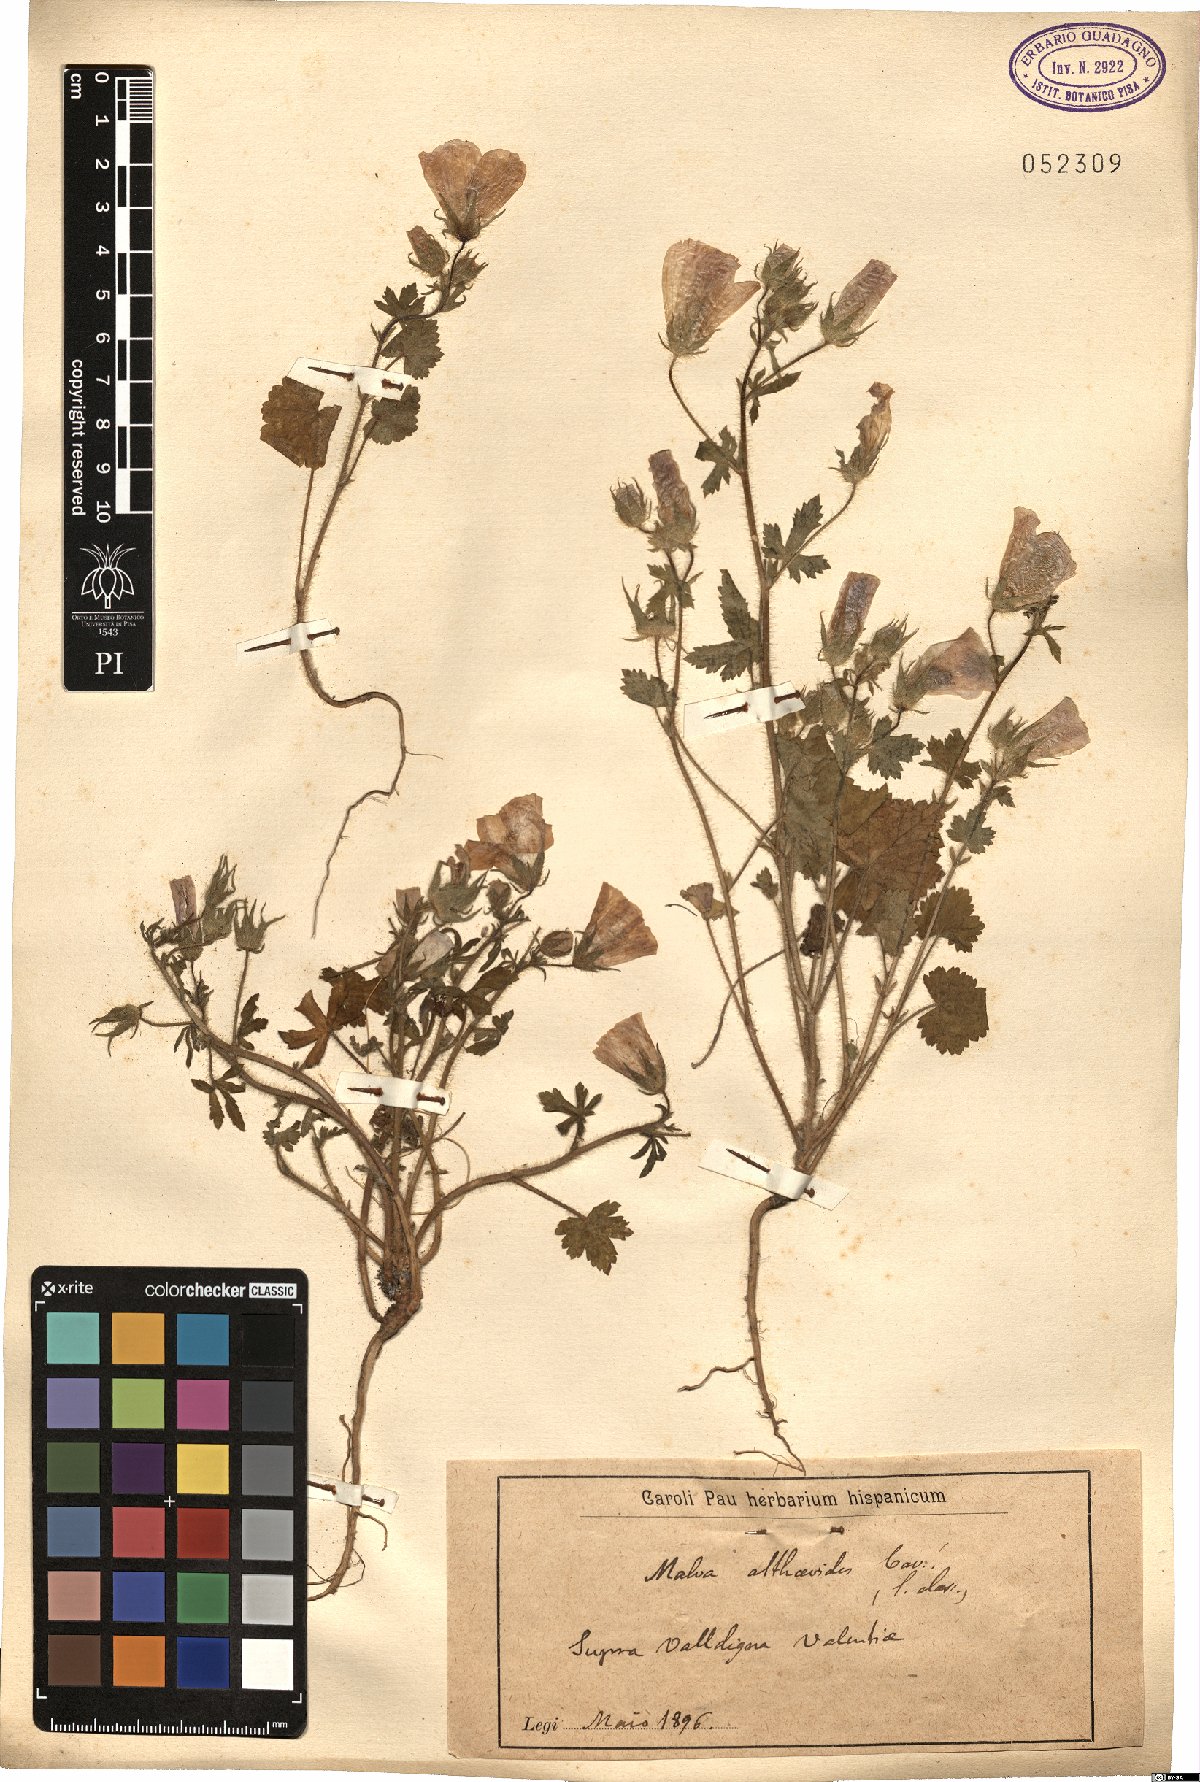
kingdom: Plantae
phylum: Tracheophyta
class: Magnoliopsida
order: Malvales
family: Malvaceae
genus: Malva
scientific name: Malva cretica
